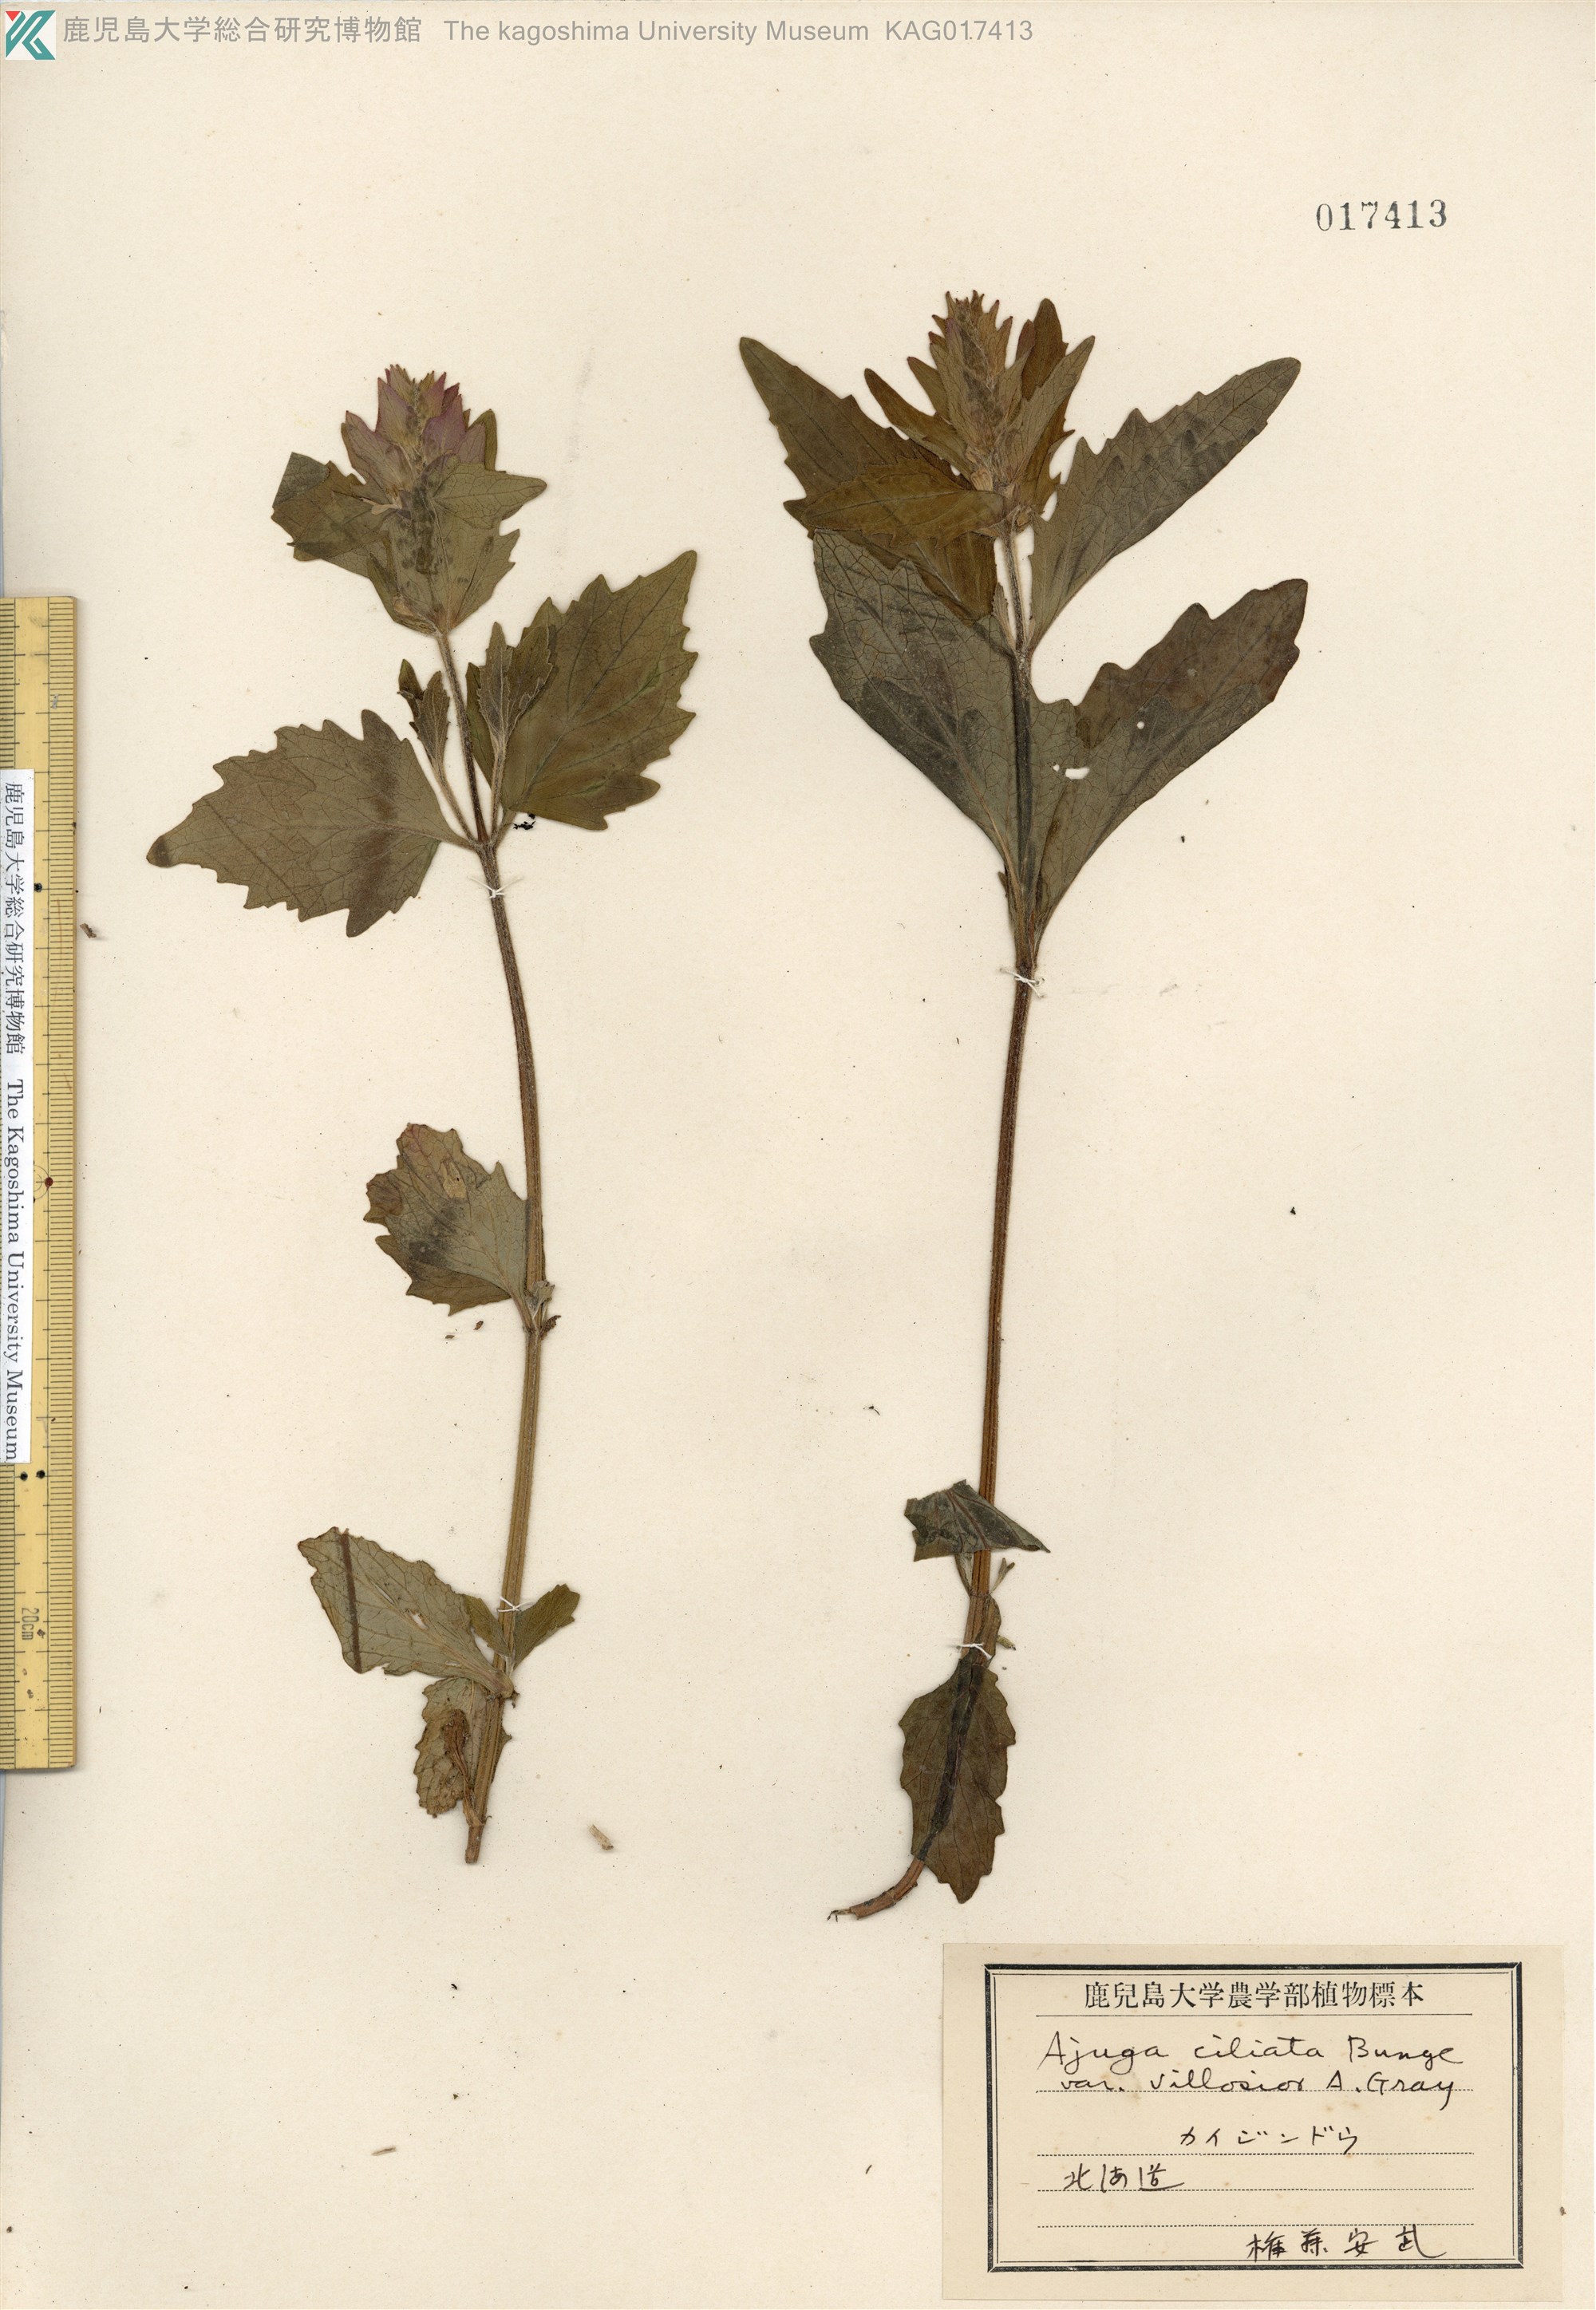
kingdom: Plantae
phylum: Tracheophyta
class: Magnoliopsida
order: Lamiales
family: Lamiaceae
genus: Ajuga
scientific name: Ajuga ciliata
